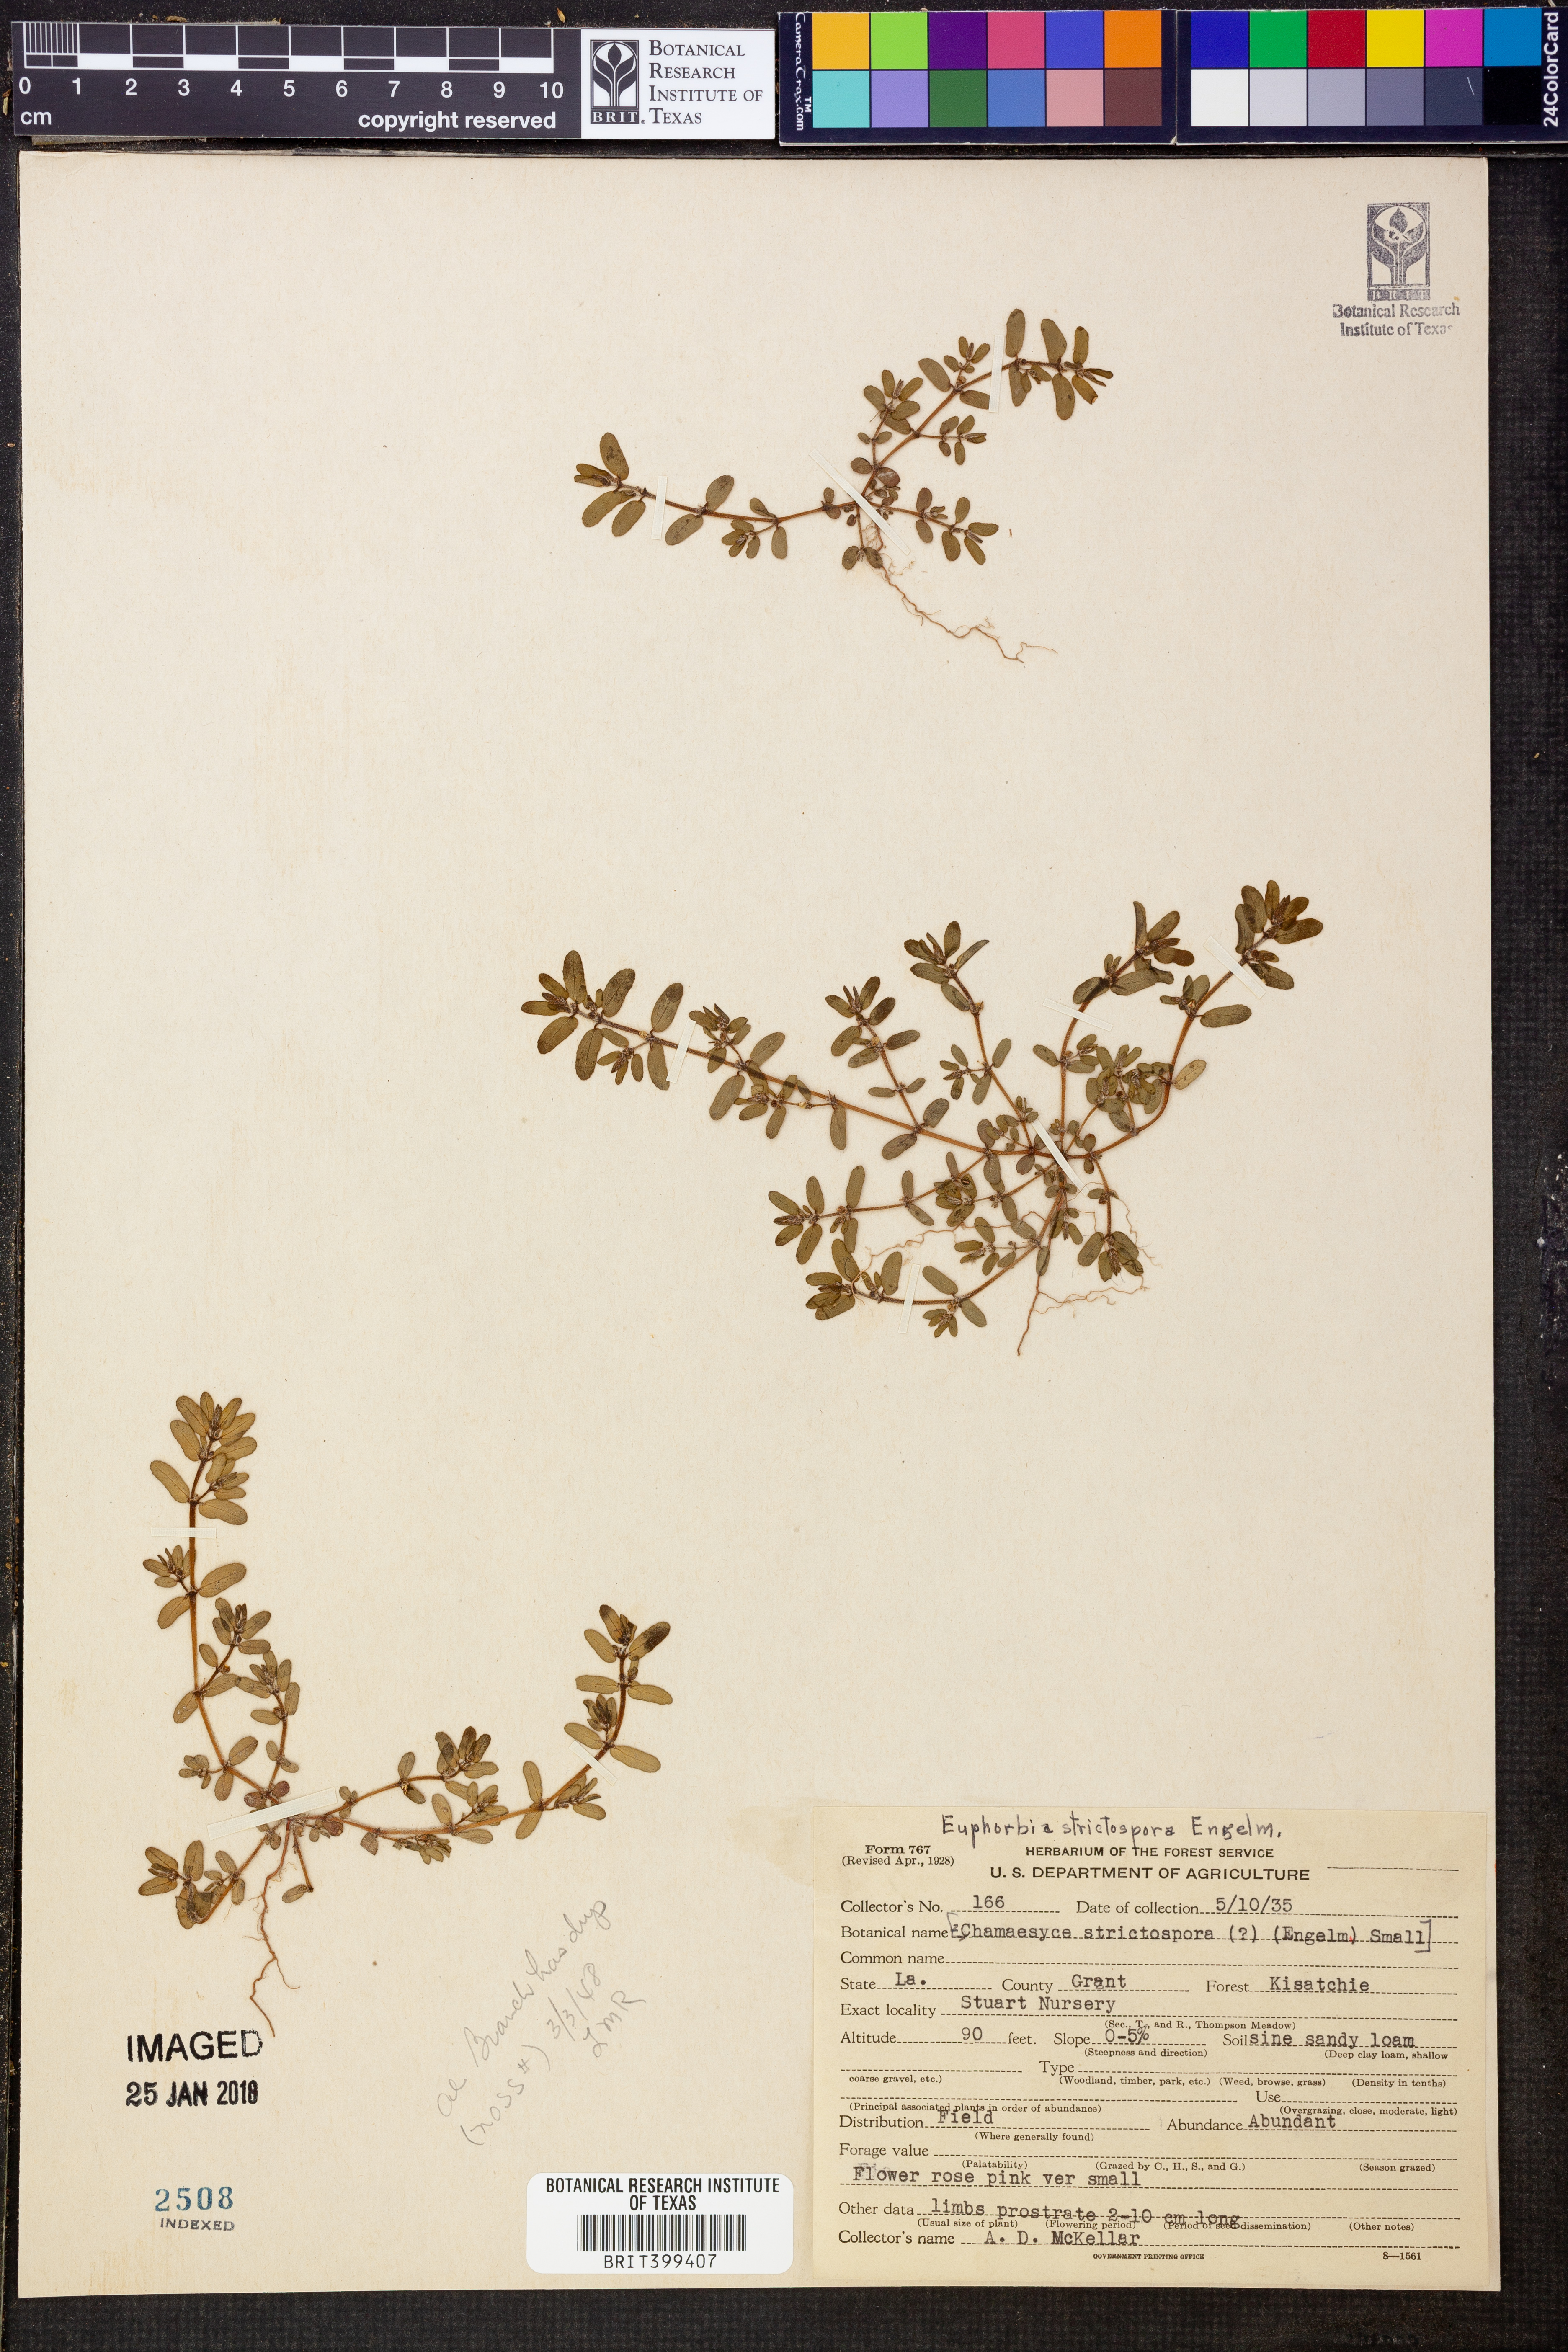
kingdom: Plantae
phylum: Tracheophyta
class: Magnoliopsida
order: Malpighiales
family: Euphorbiaceae
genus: Euphorbia
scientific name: Euphorbia stictospora
